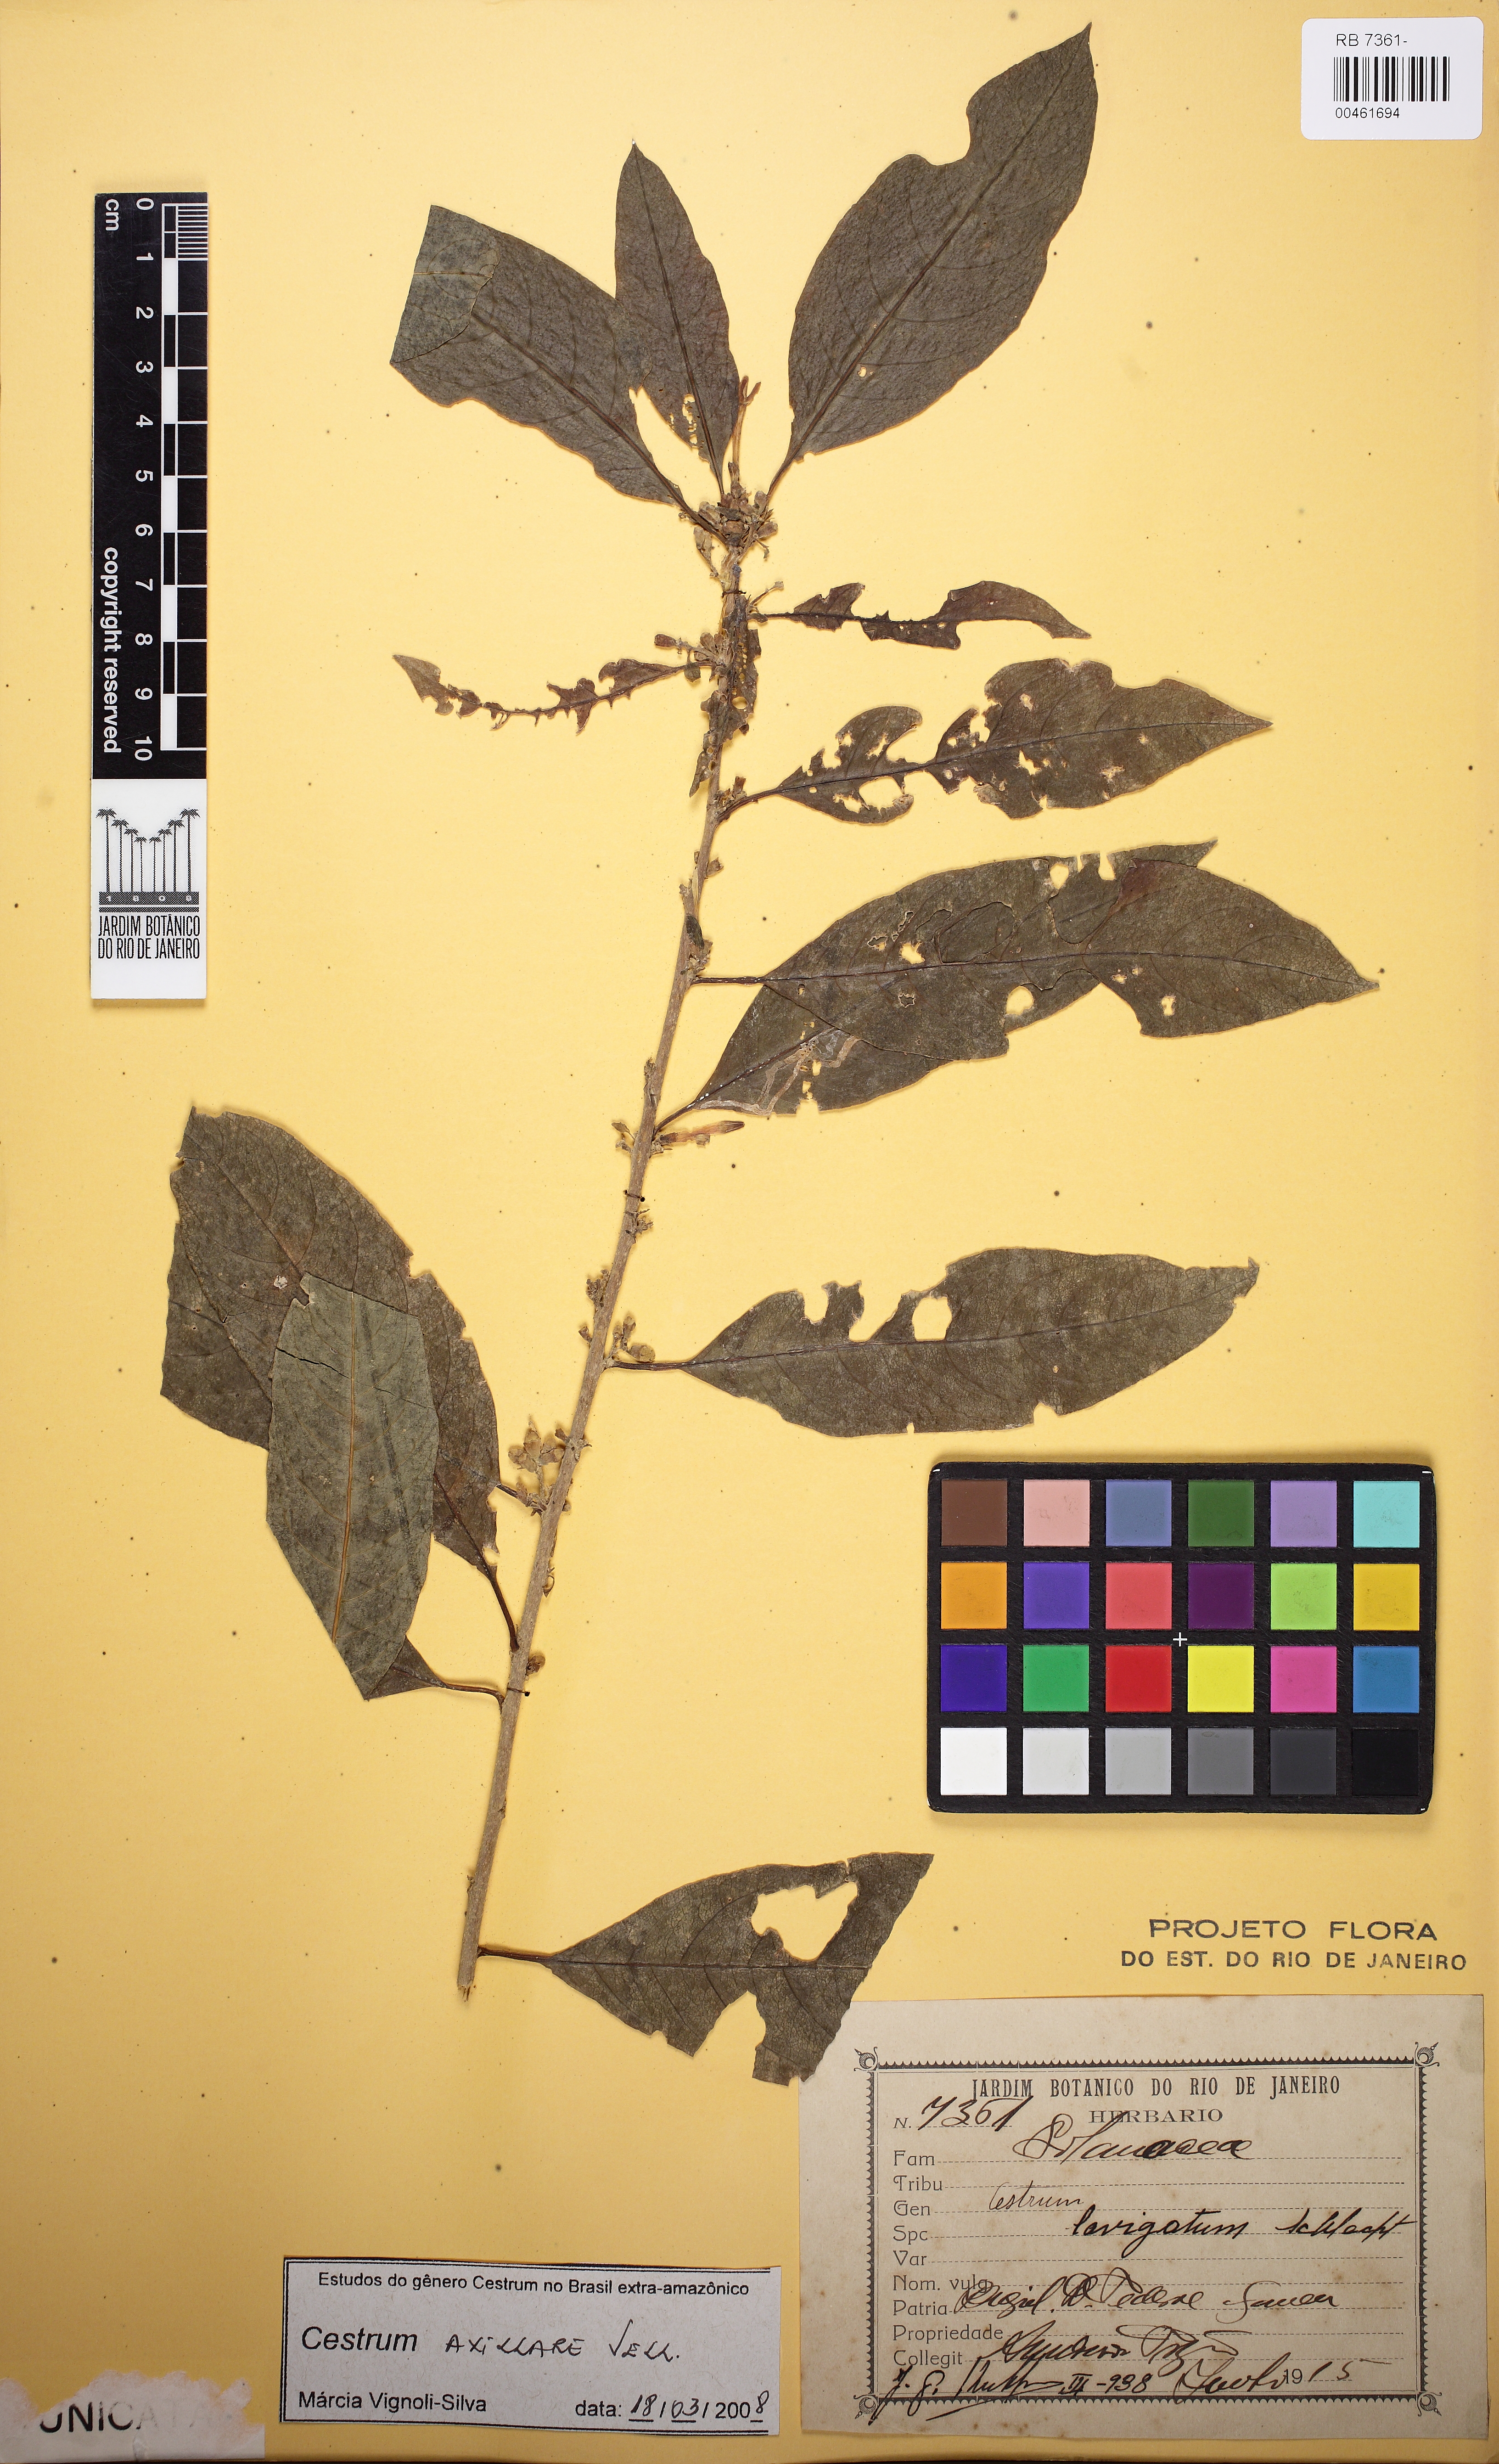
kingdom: Plantae
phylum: Tracheophyta
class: Magnoliopsida
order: Solanales
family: Solanaceae
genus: Cestrum
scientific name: Cestrum laevigatum
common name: Inkberry
